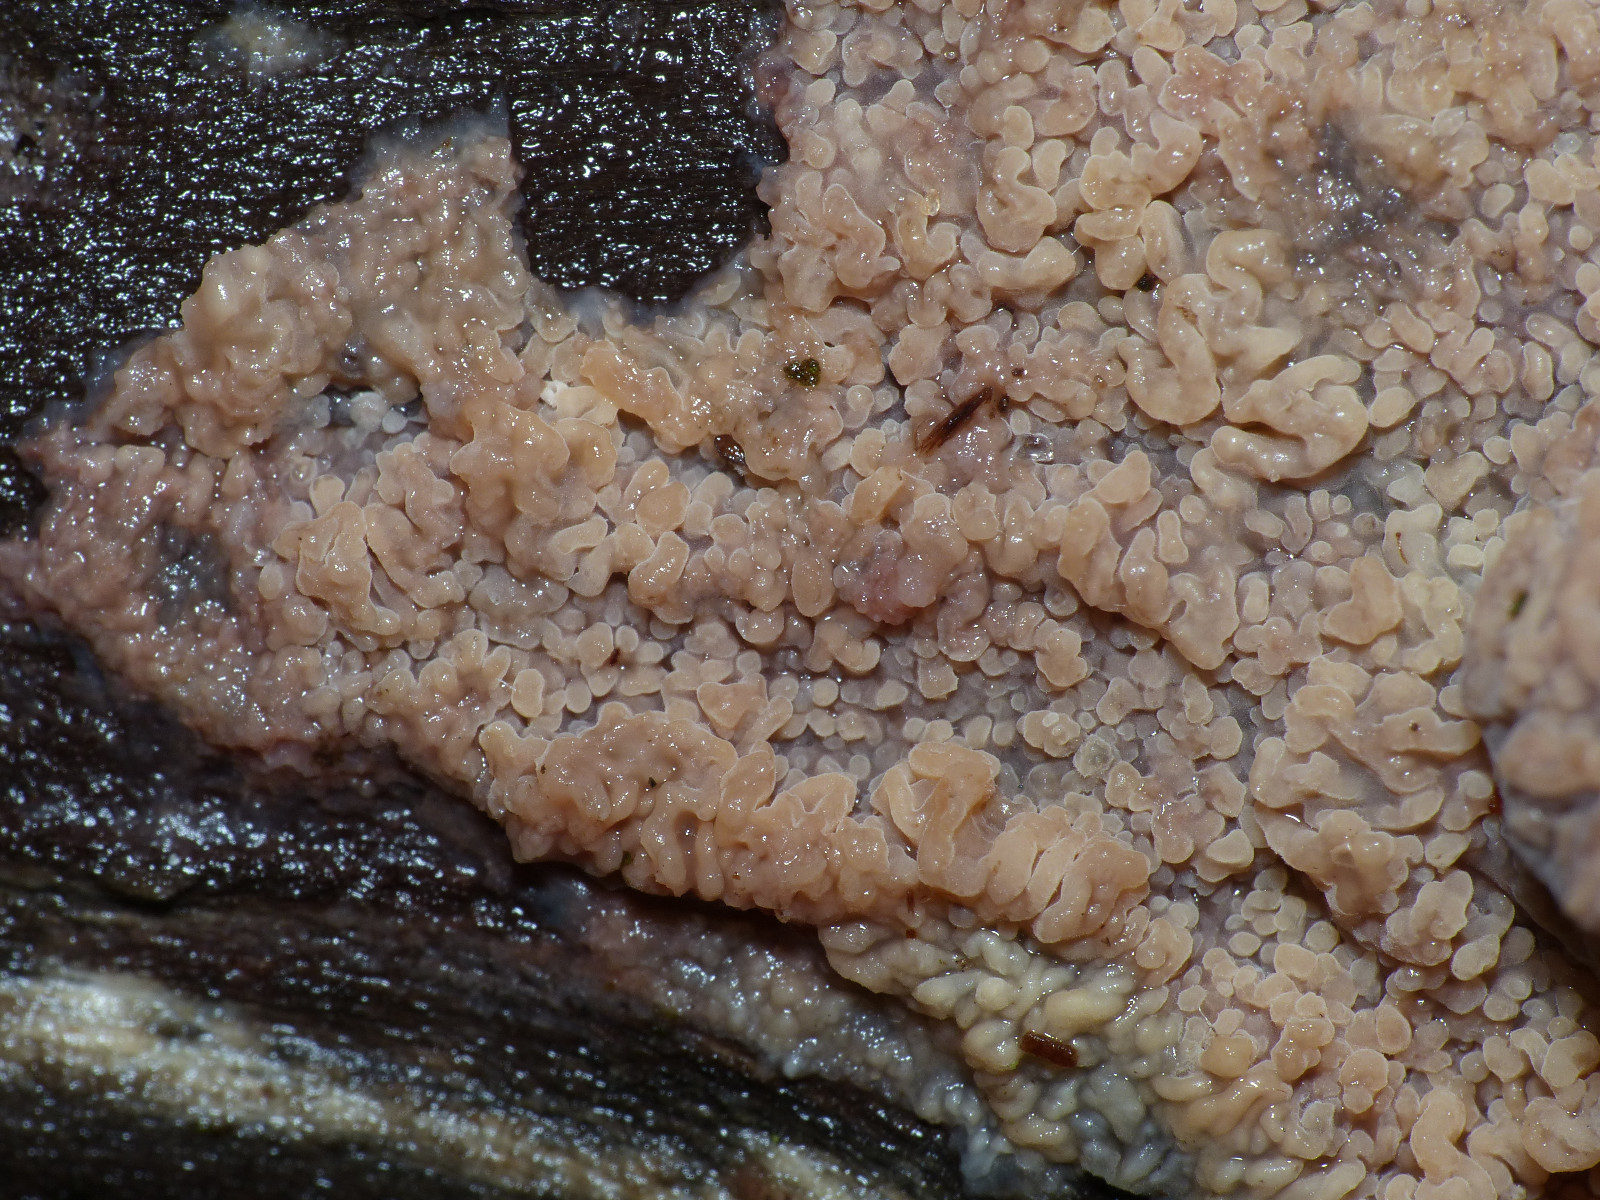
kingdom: Fungi
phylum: Basidiomycota
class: Agaricomycetes
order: Polyporales
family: Meruliaceae
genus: Phlebia
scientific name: Phlebia radiata
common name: stråle-åresvamp
